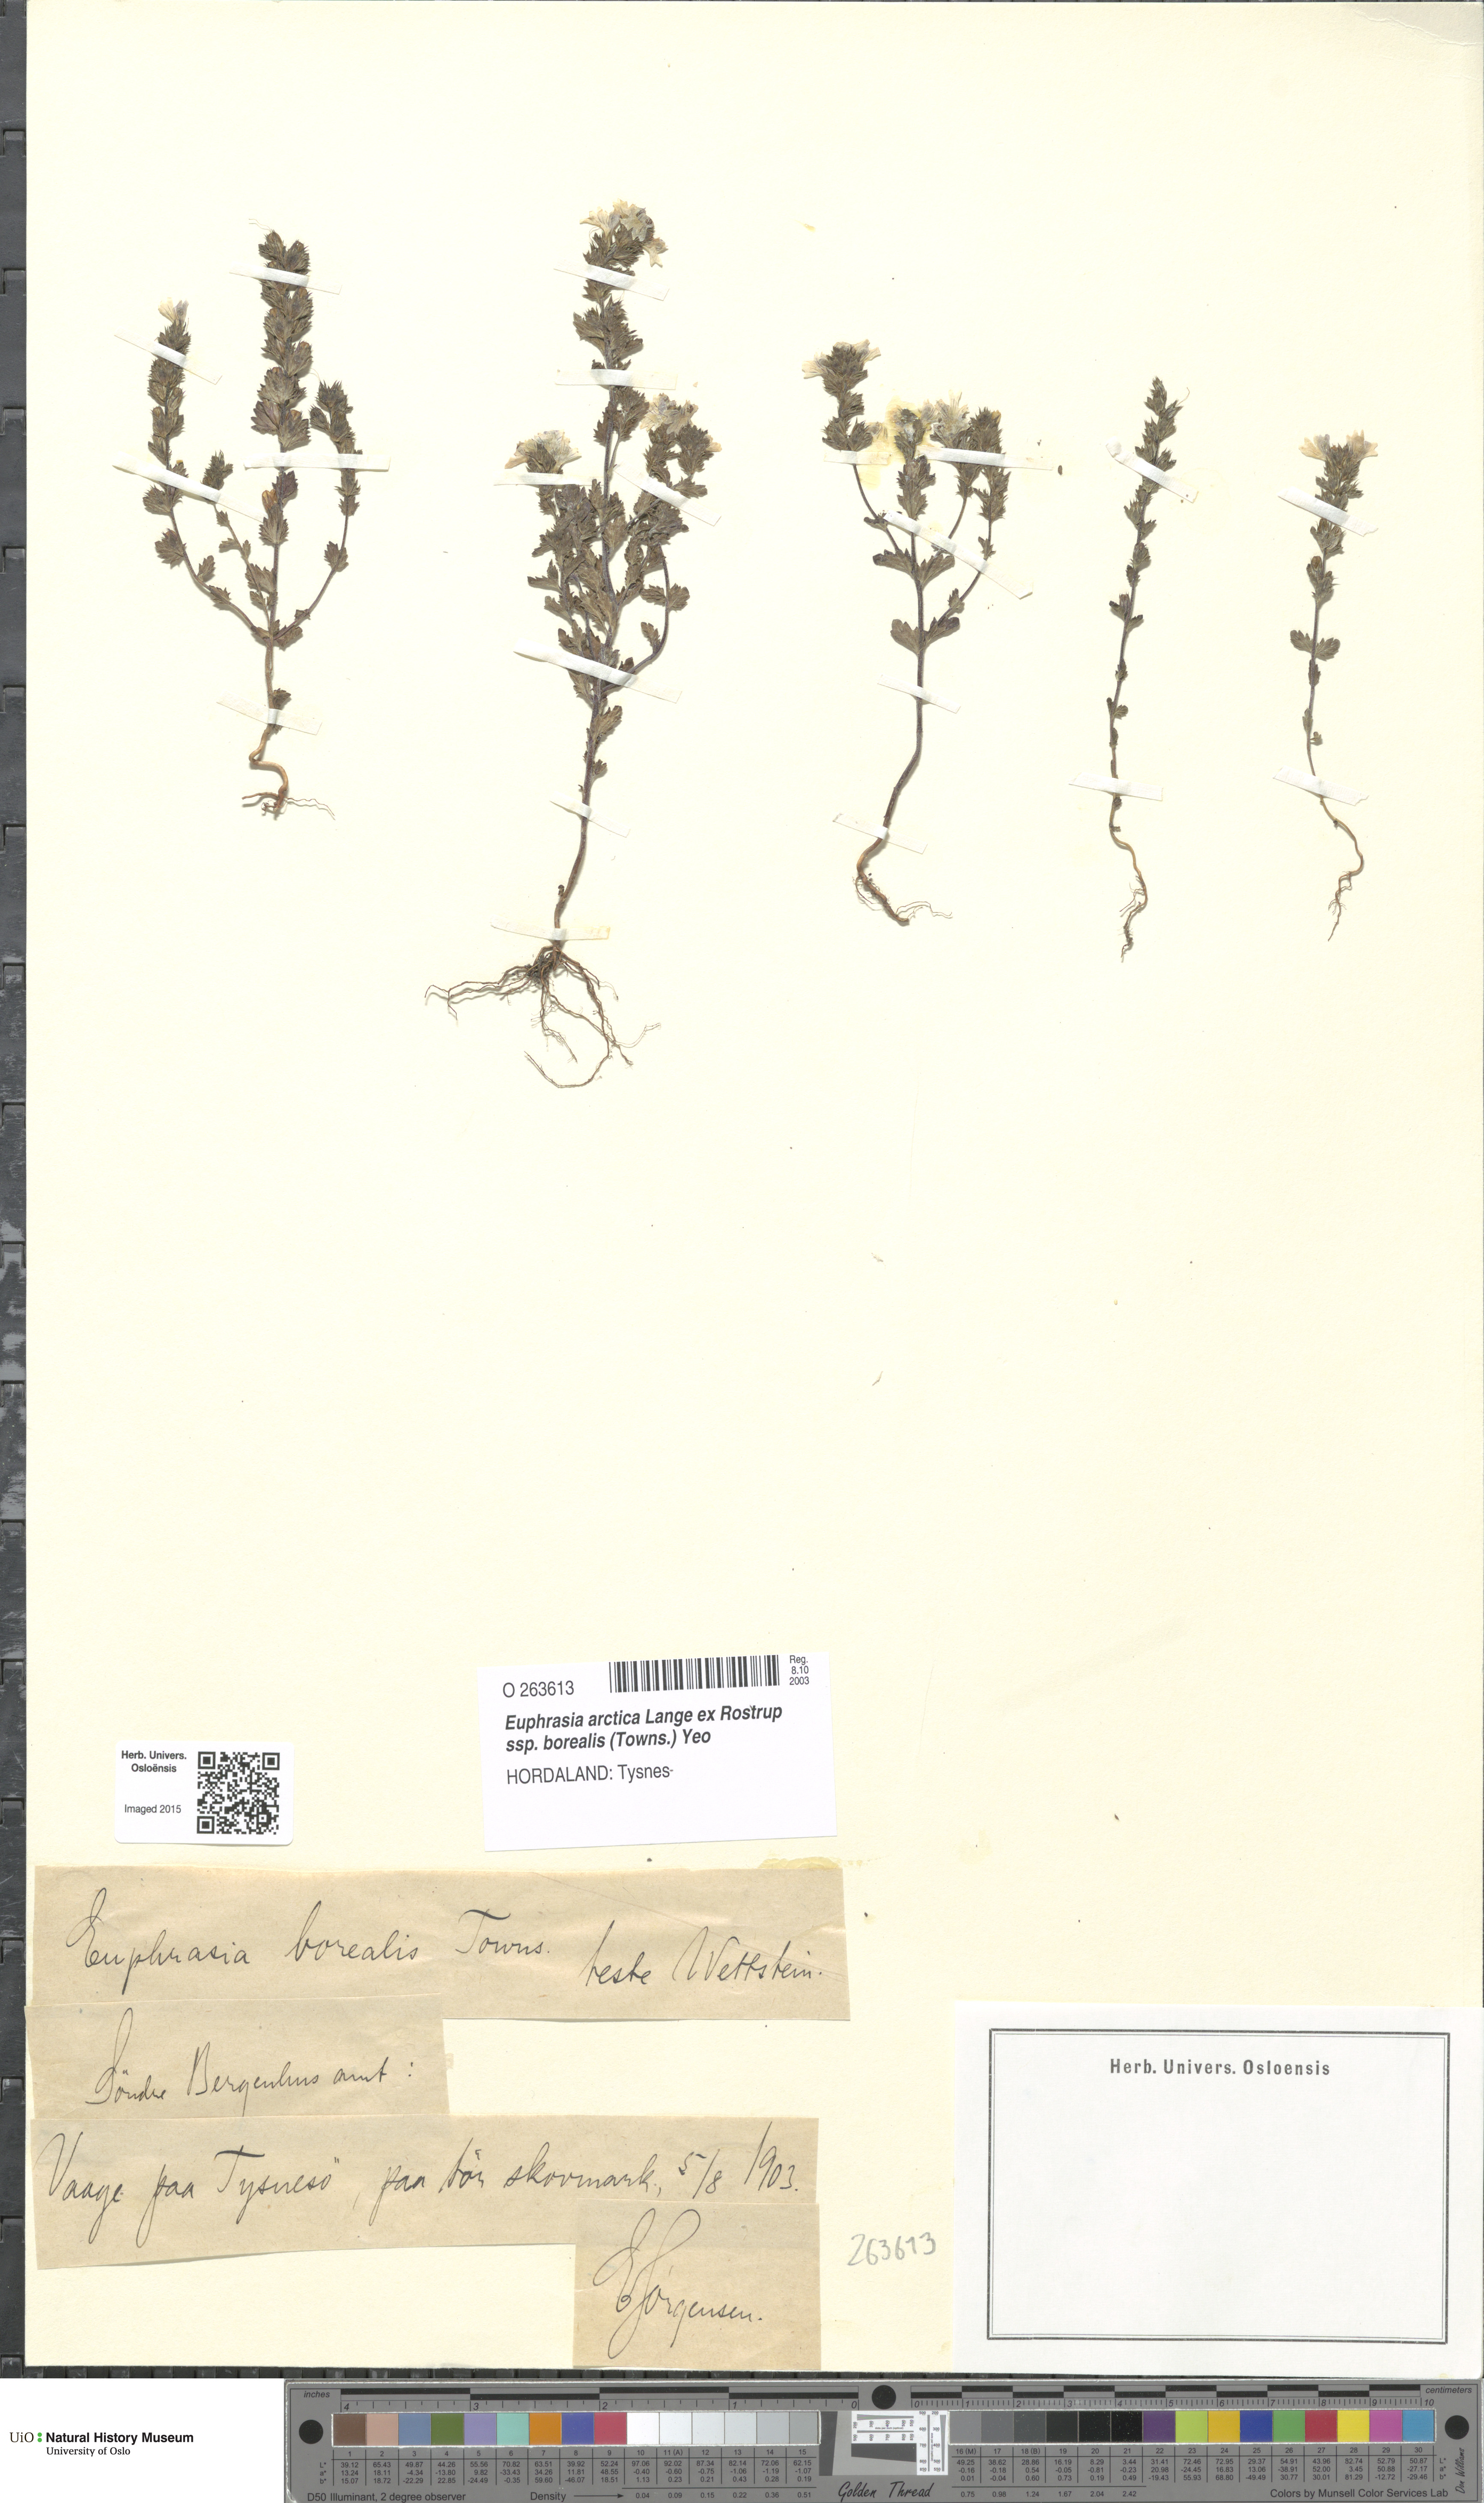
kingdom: Plantae
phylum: Tracheophyta
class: Magnoliopsida
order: Lamiales
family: Orobanchaceae
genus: Euphrasia
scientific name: Euphrasia arctica
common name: An eyebright
